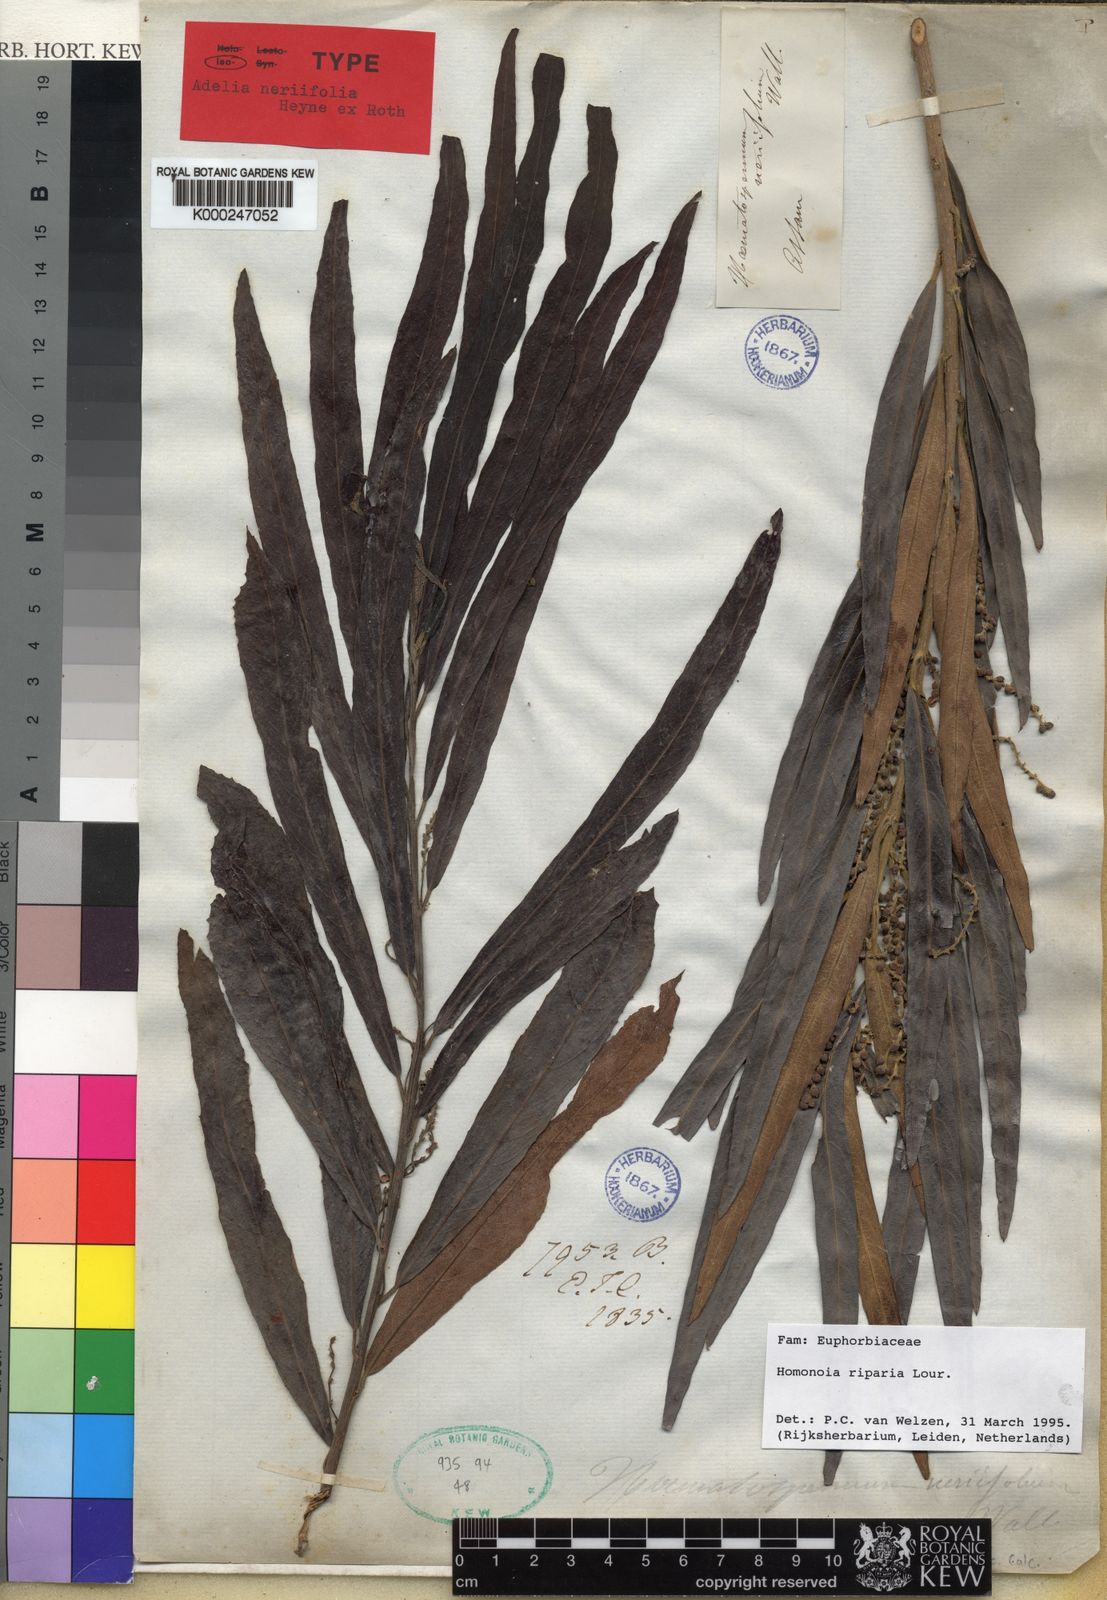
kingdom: Plantae
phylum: Tracheophyta
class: Magnoliopsida
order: Malpighiales
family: Euphorbiaceae
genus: Homonoia
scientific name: Homonoia riparia
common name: Willow-leaved water croton
